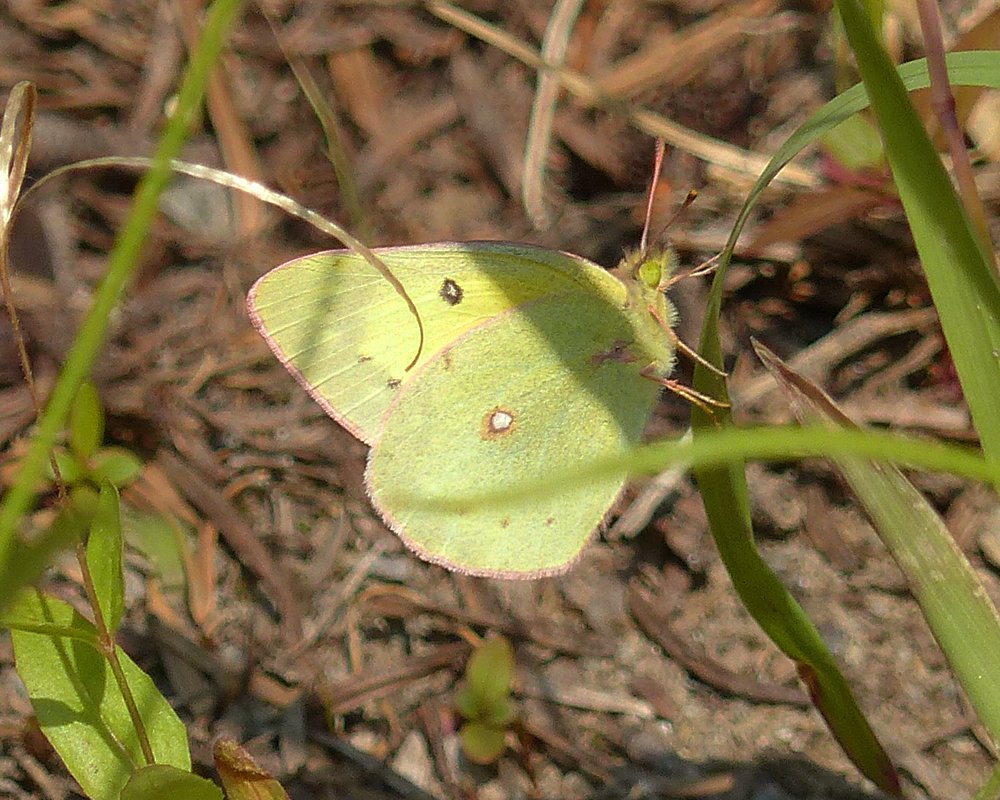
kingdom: Animalia
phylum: Arthropoda
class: Insecta
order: Lepidoptera
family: Pieridae
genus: Colias
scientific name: Colias philodice
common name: Clouded Sulphur
